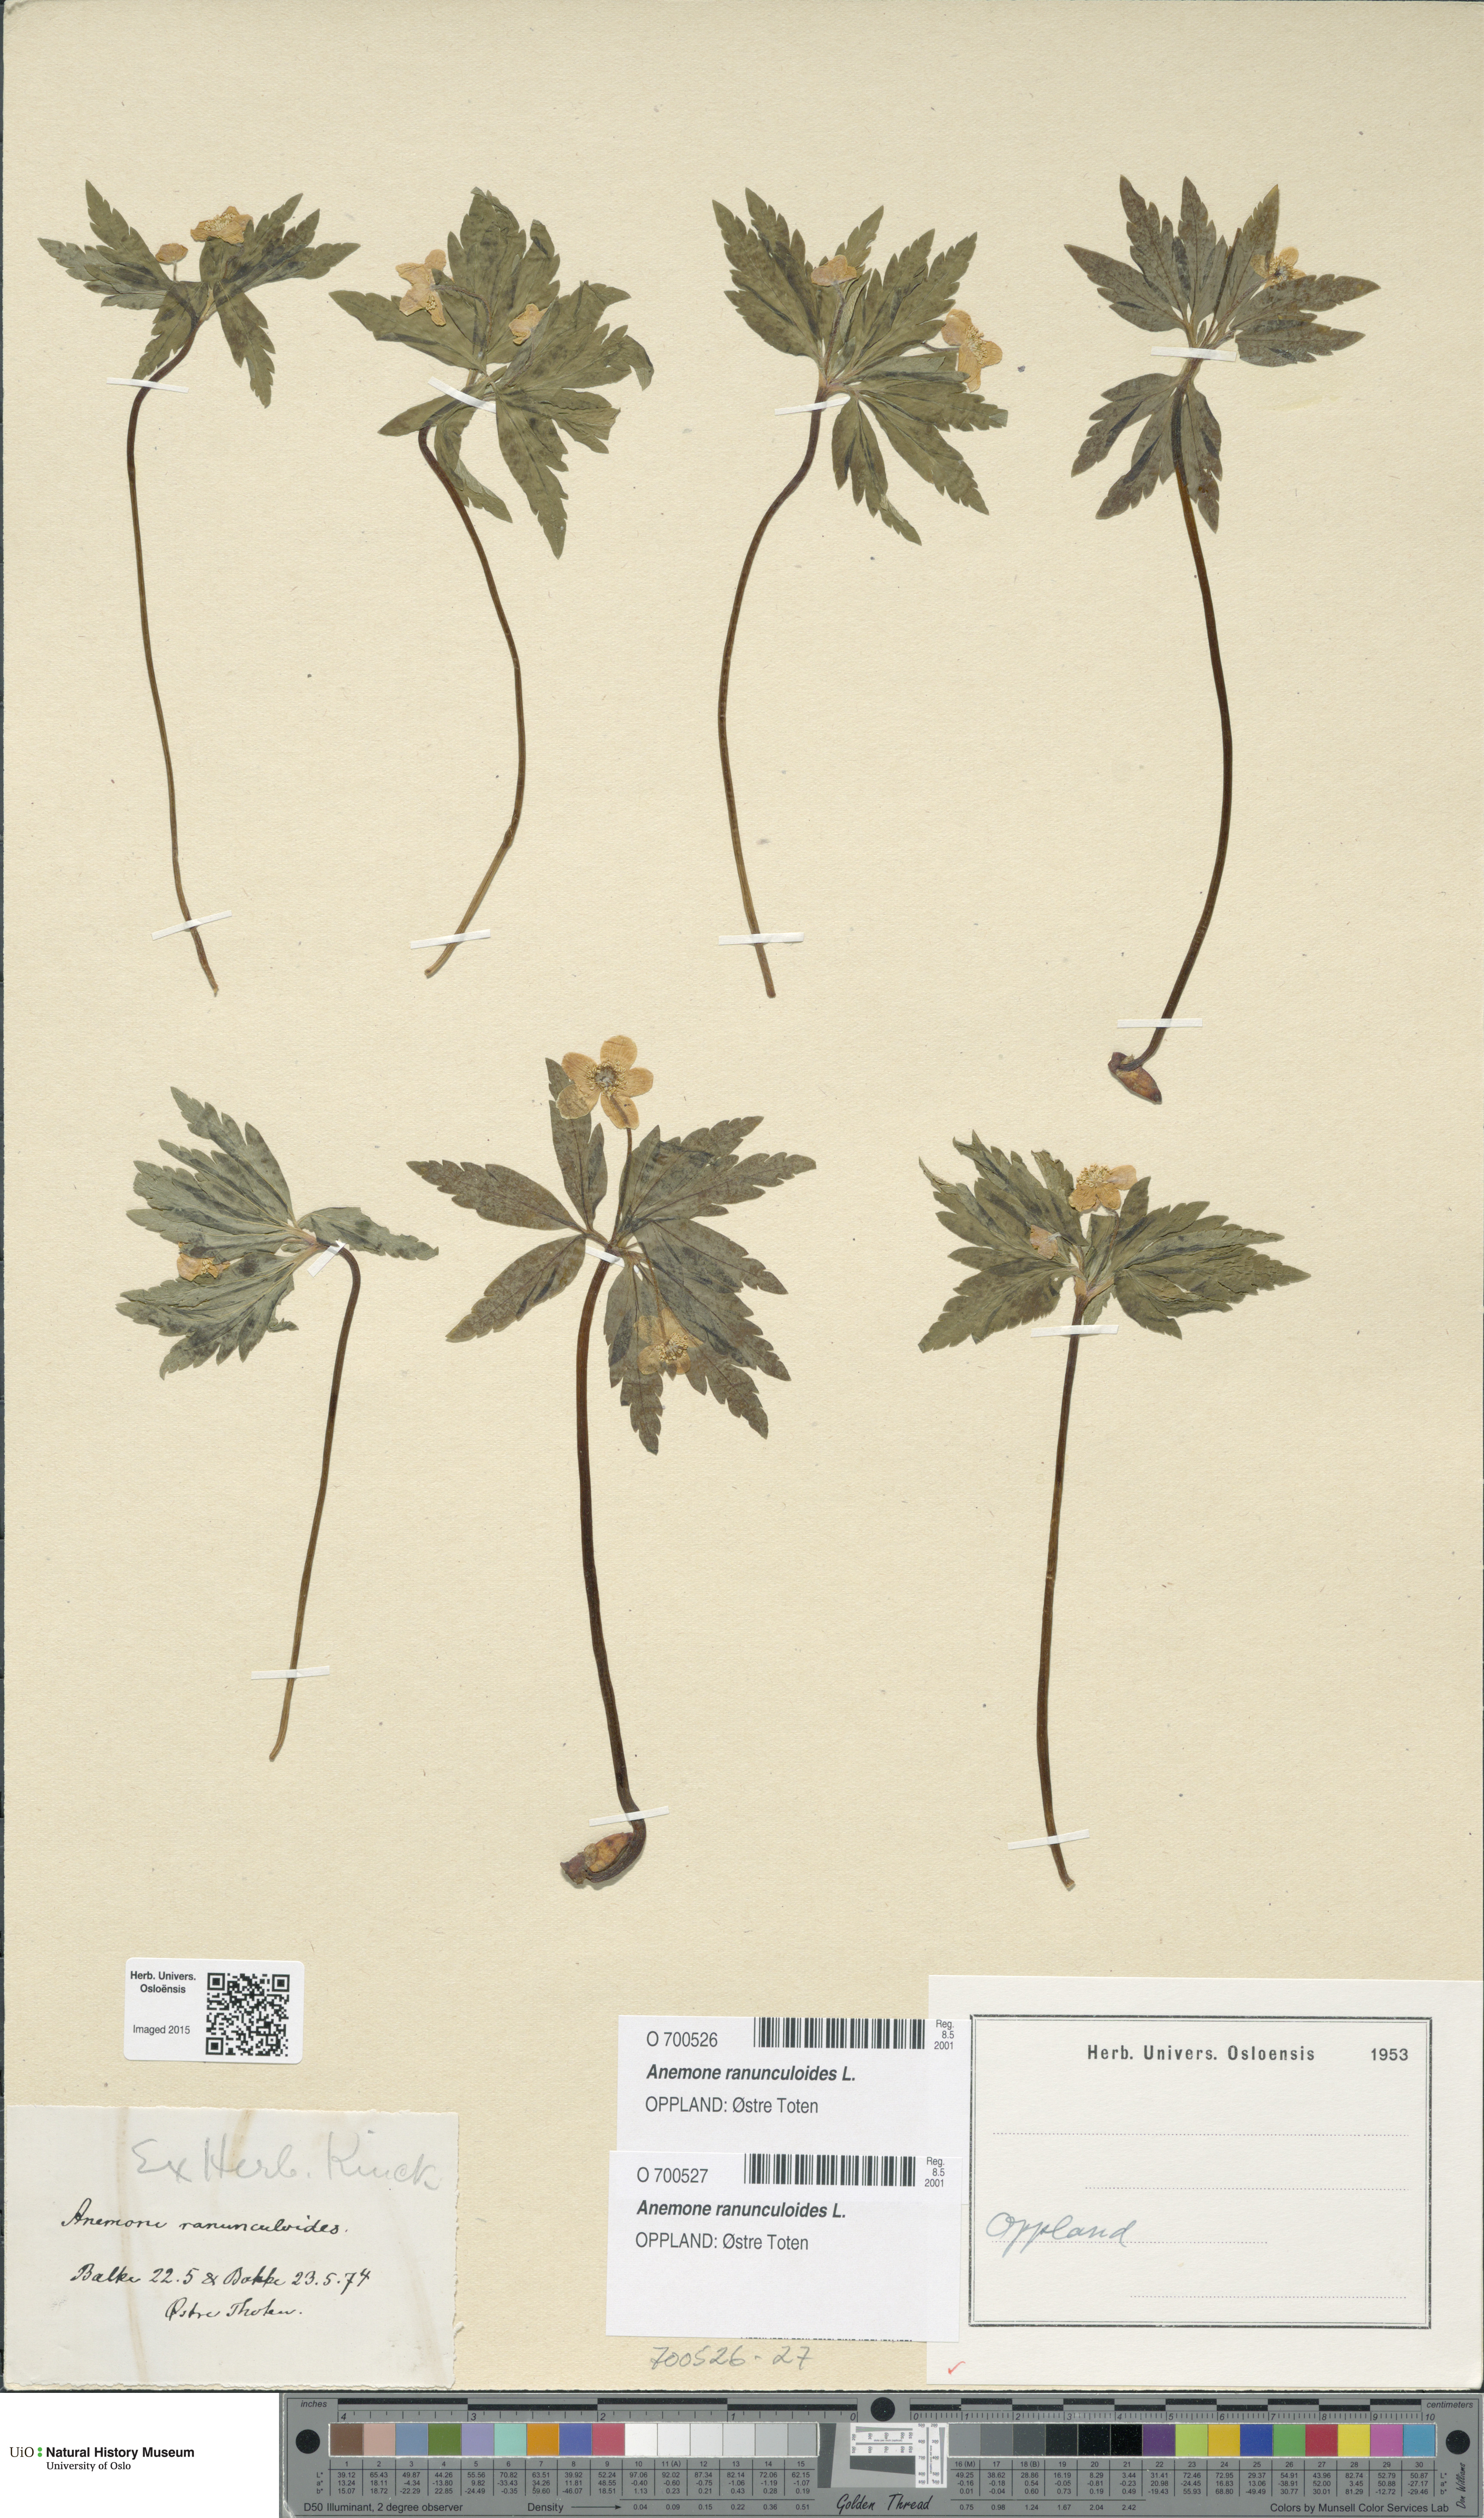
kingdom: Plantae
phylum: Tracheophyta
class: Magnoliopsida
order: Ranunculales
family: Ranunculaceae
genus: Anemone
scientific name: Anemone ranunculoides
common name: Yellow anemone
